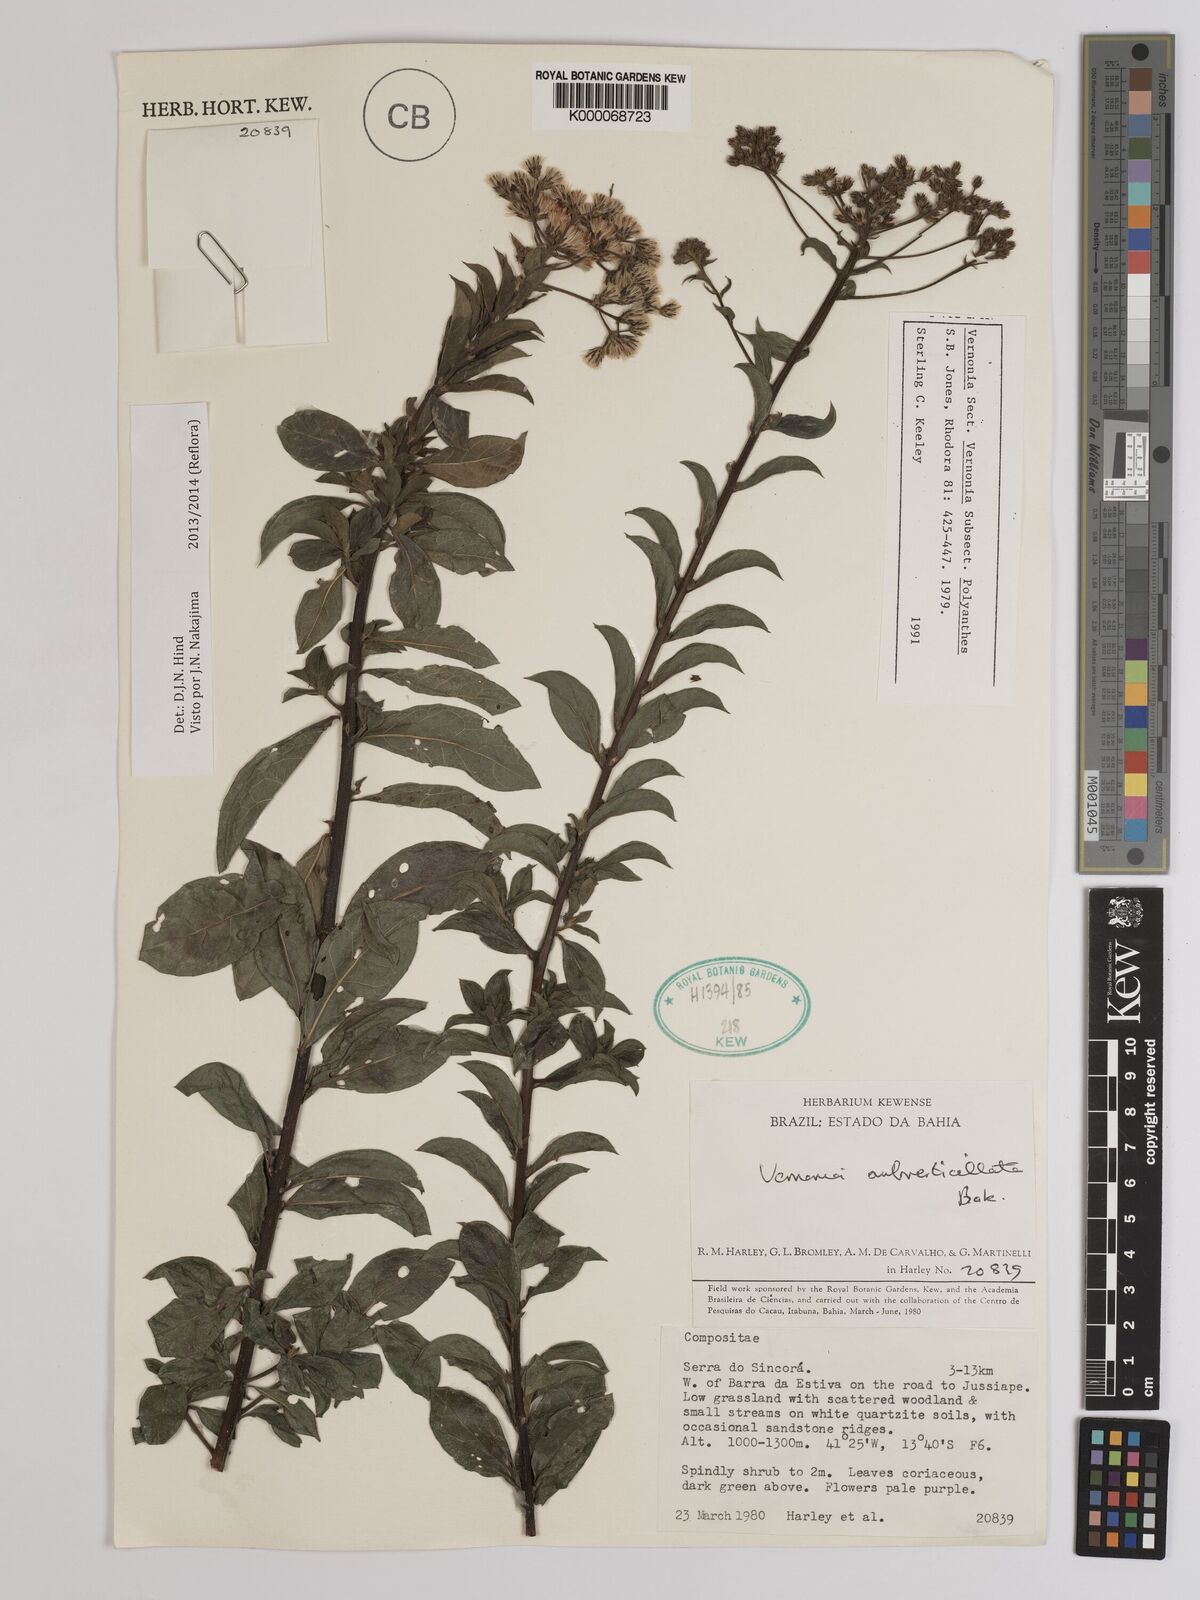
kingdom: Plantae
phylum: Tracheophyta
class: Magnoliopsida
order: Asterales
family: Asteraceae
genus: Vernonia
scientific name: Vernonia
